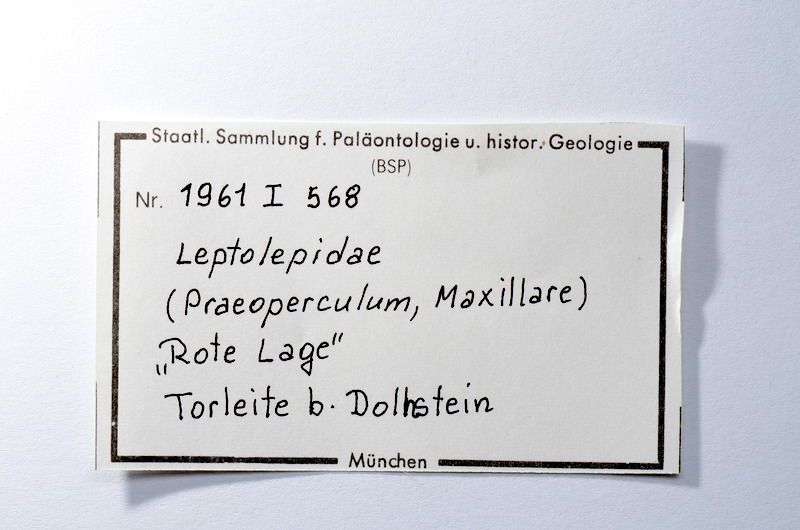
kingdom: Animalia
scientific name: Animalia
